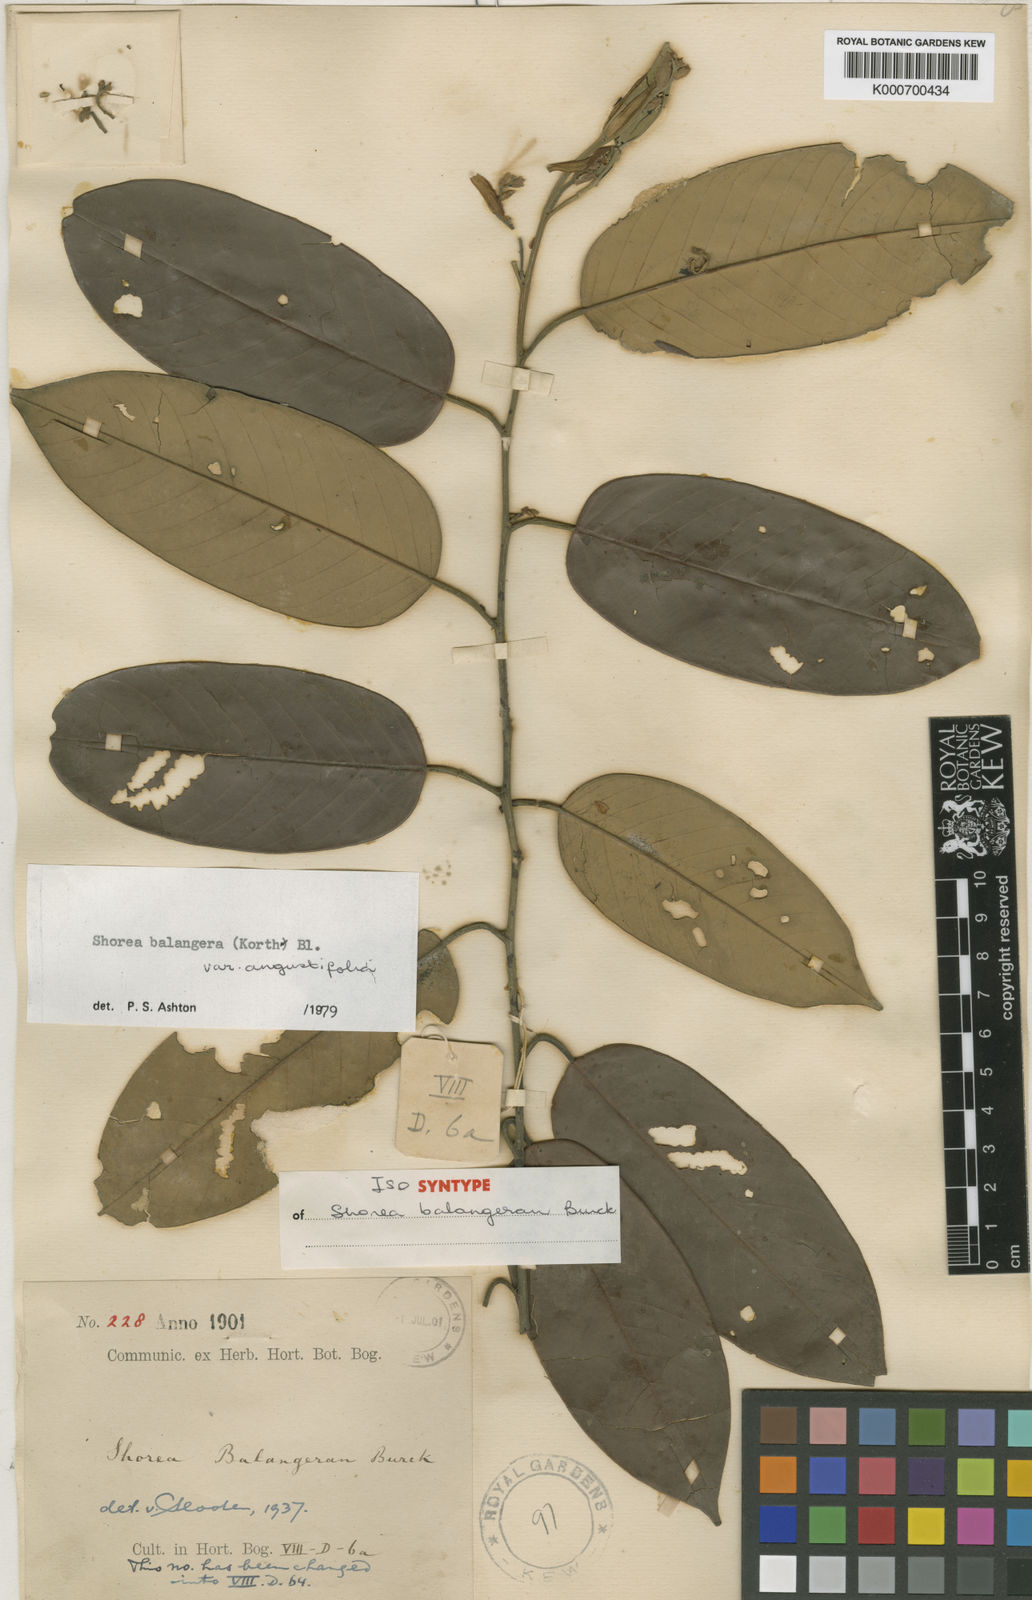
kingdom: Plantae
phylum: Tracheophyta
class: Magnoliopsida
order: Malvales
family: Dipterocarpaceae
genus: Shorea
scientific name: Shorea
